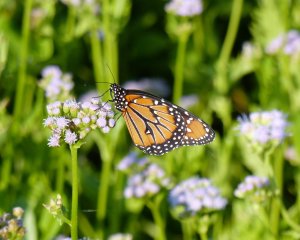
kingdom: Animalia
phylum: Arthropoda
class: Insecta
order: Lepidoptera
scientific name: Lepidoptera
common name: Butterflies
